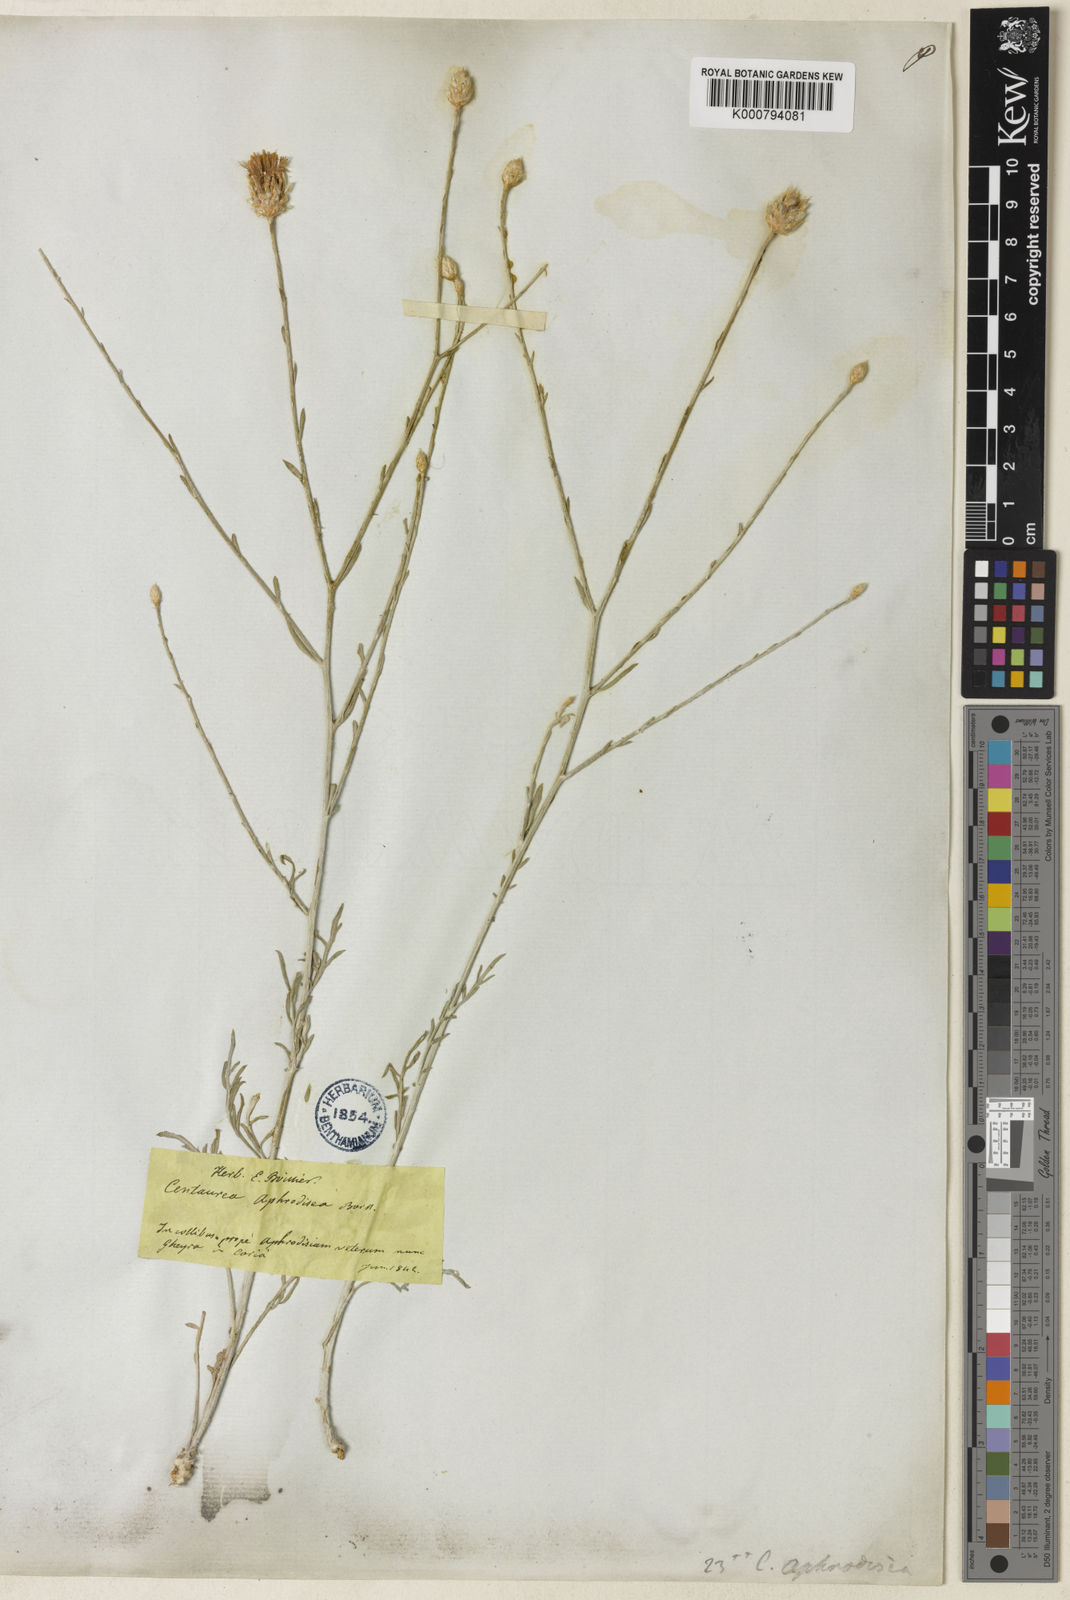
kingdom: Plantae
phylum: Tracheophyta
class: Magnoliopsida
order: Asterales
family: Asteraceae
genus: Centaurea
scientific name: Centaurea aphrodisea
